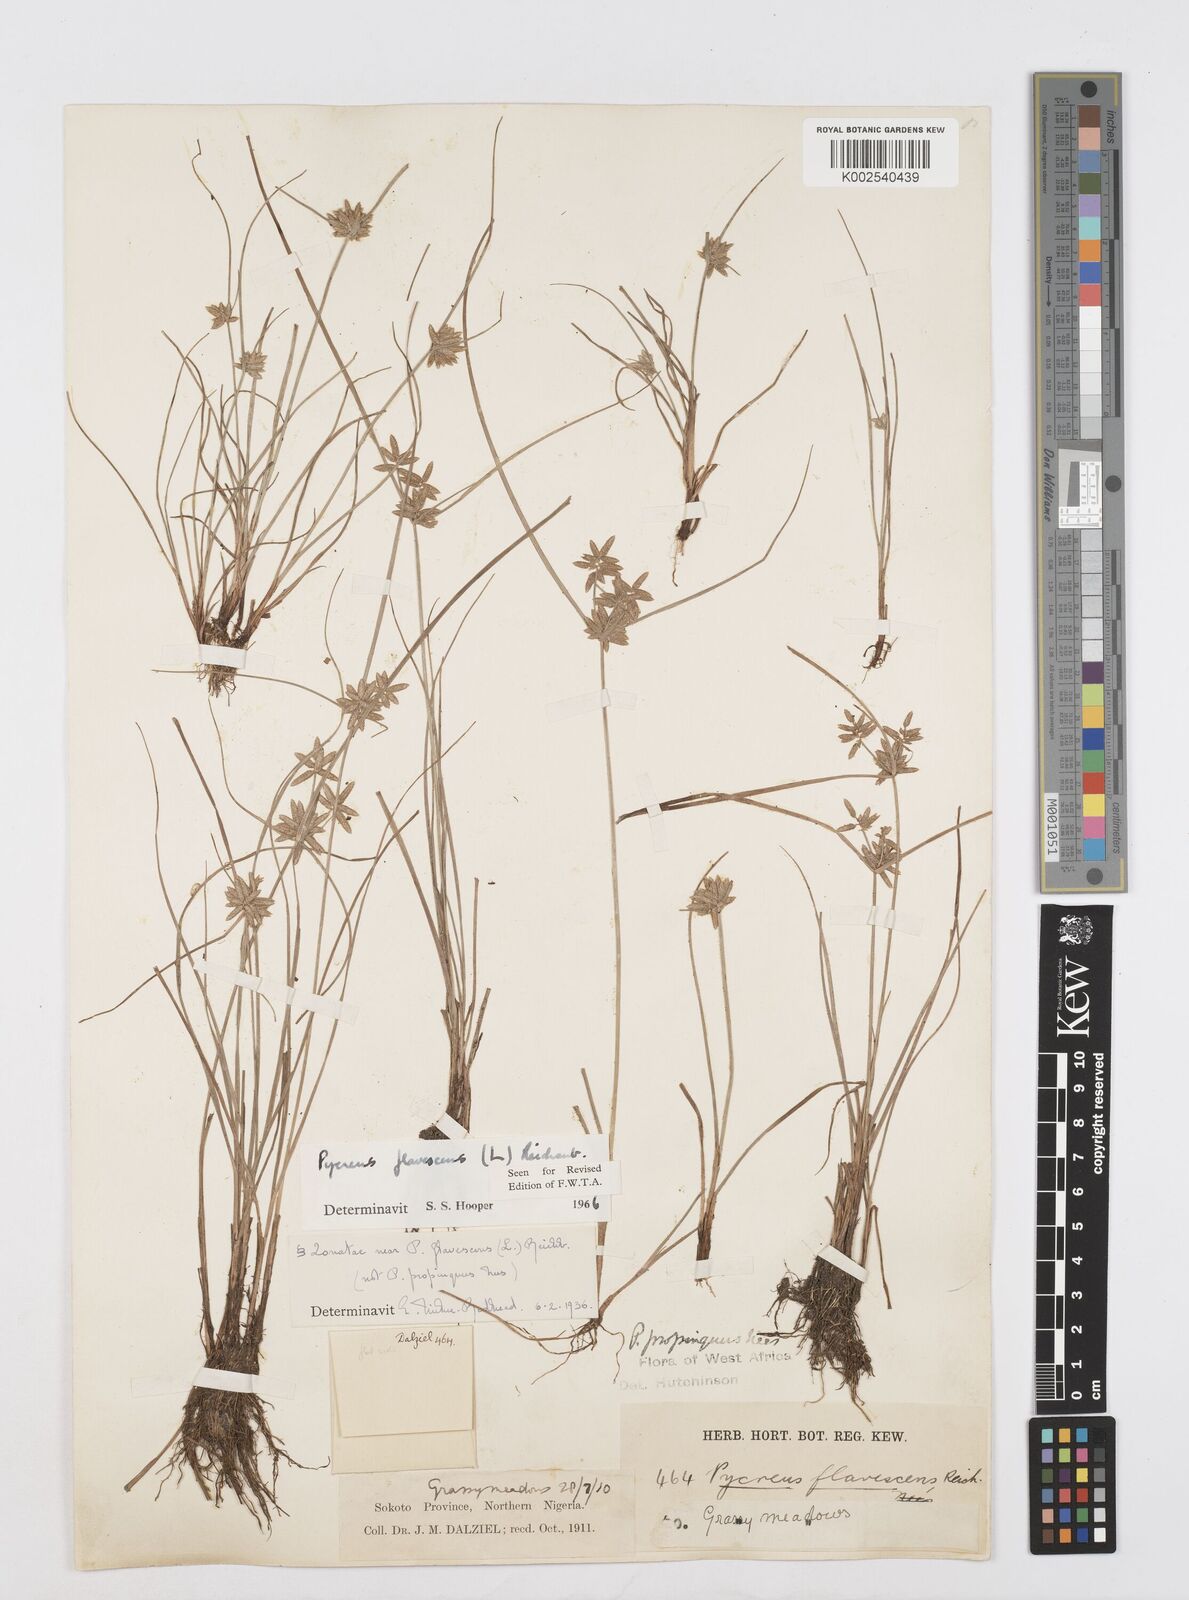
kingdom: Plantae
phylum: Tracheophyta
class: Liliopsida
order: Poales
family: Cyperaceae
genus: Cyperus
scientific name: Cyperus flavescens
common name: Yellow galingale
